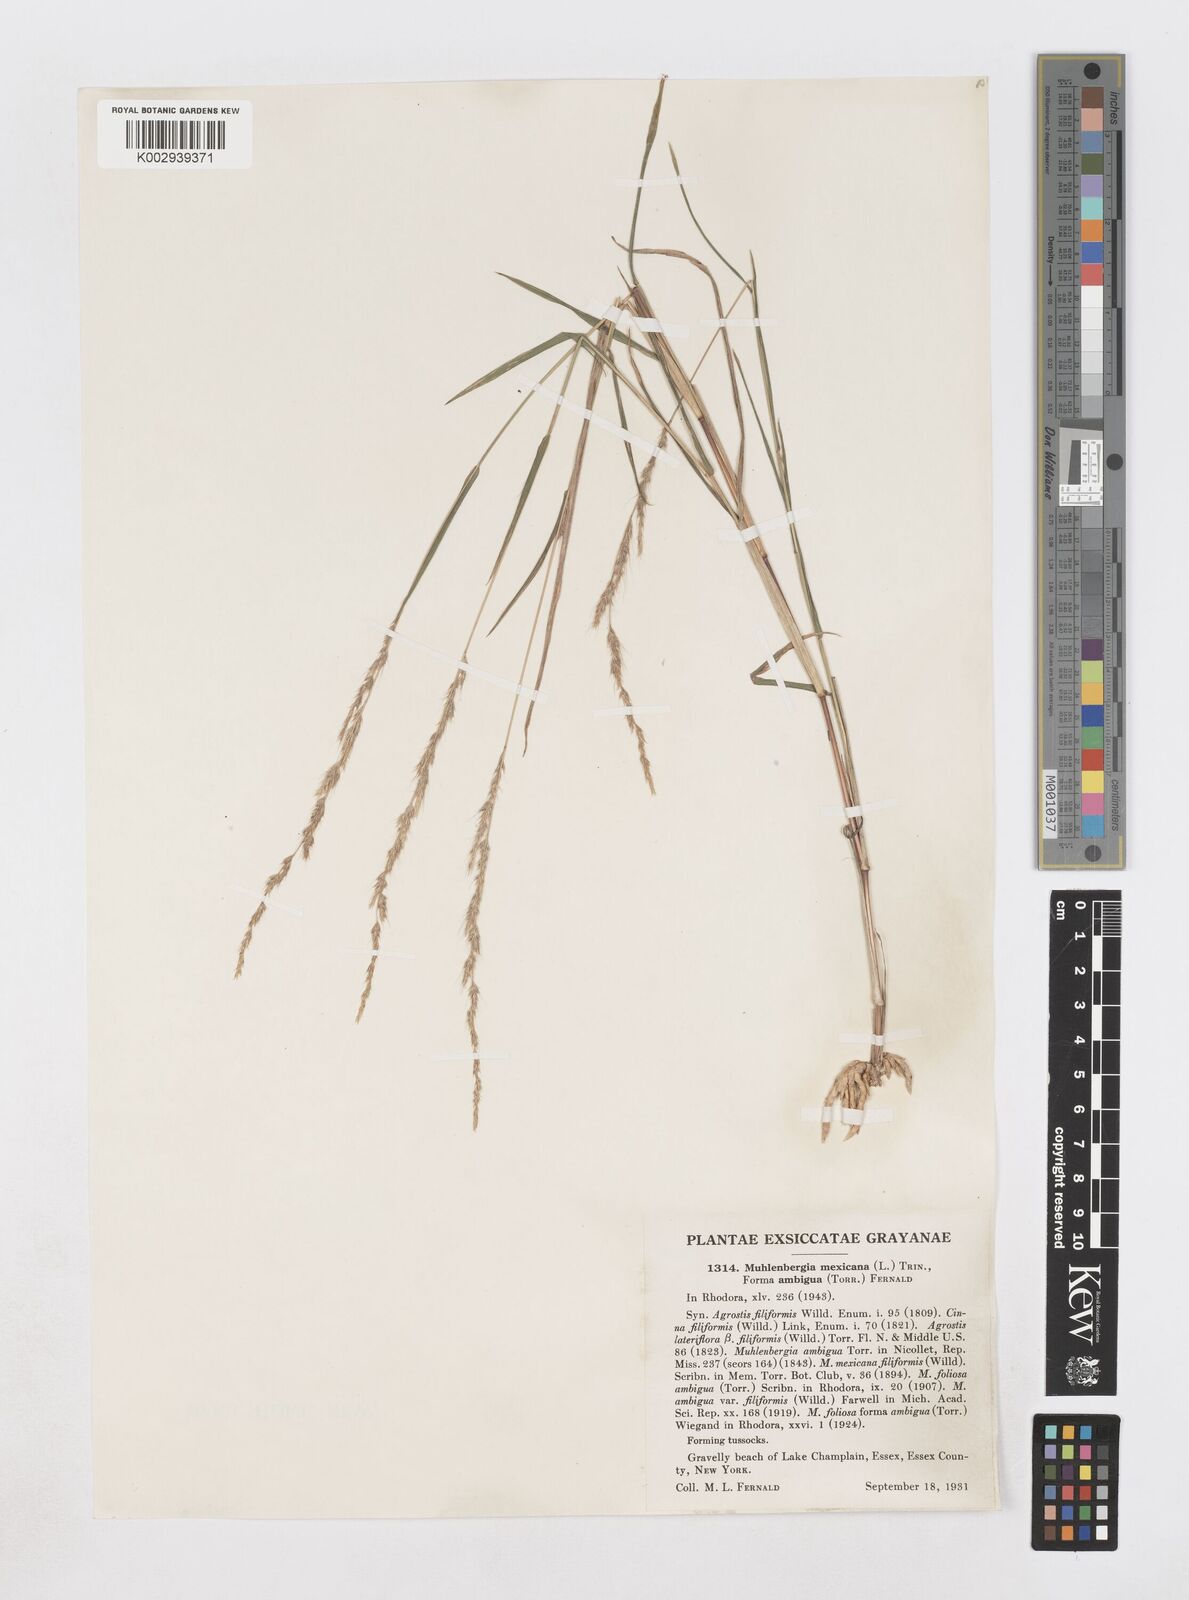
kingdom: Plantae
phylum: Tracheophyta
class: Liliopsida
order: Poales
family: Poaceae
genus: Muhlenbergia
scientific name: Muhlenbergia mexicana
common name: Mexican muhly
